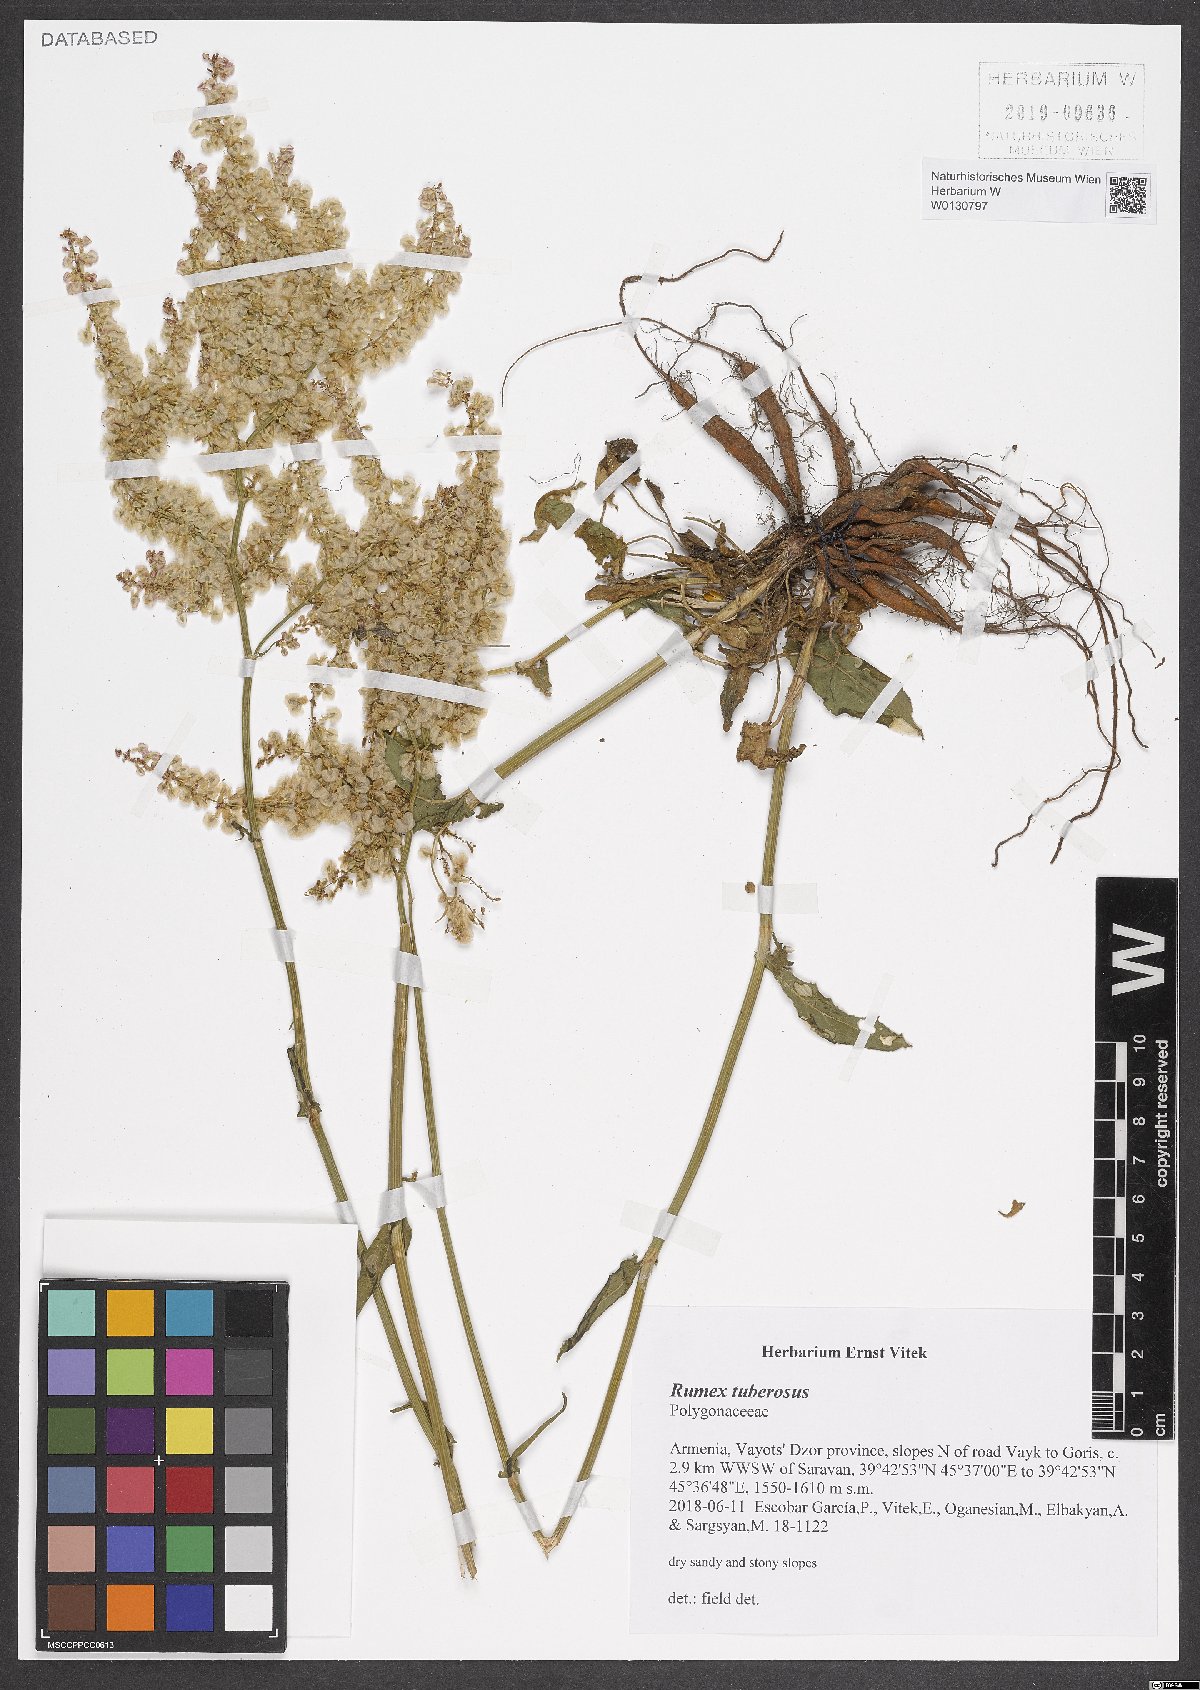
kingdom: Plantae
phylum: Tracheophyta
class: Magnoliopsida
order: Caryophyllales
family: Polygonaceae
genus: Rumex
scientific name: Rumex tuberosus
